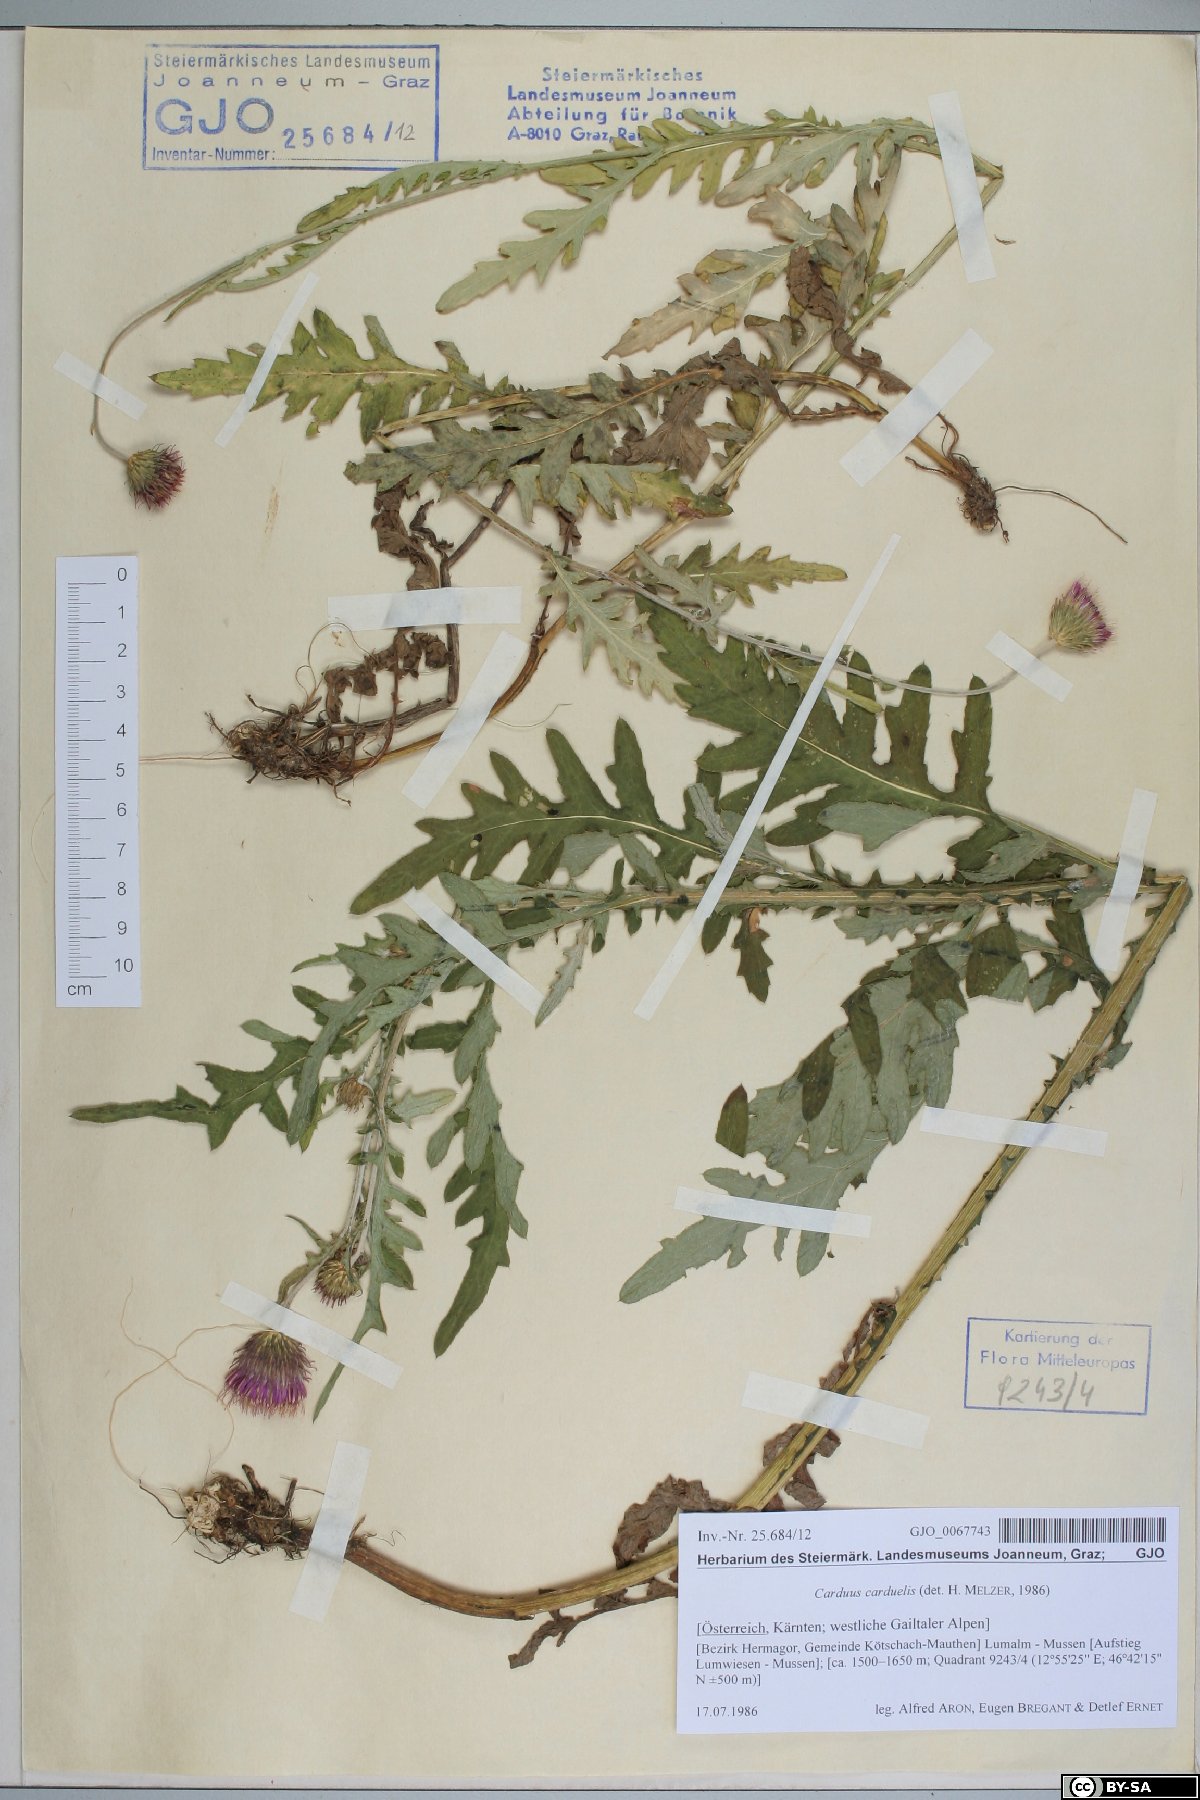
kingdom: Plantae
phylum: Tracheophyta
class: Magnoliopsida
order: Asterales
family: Asteraceae
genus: Carduus
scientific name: Carduus carduelis
